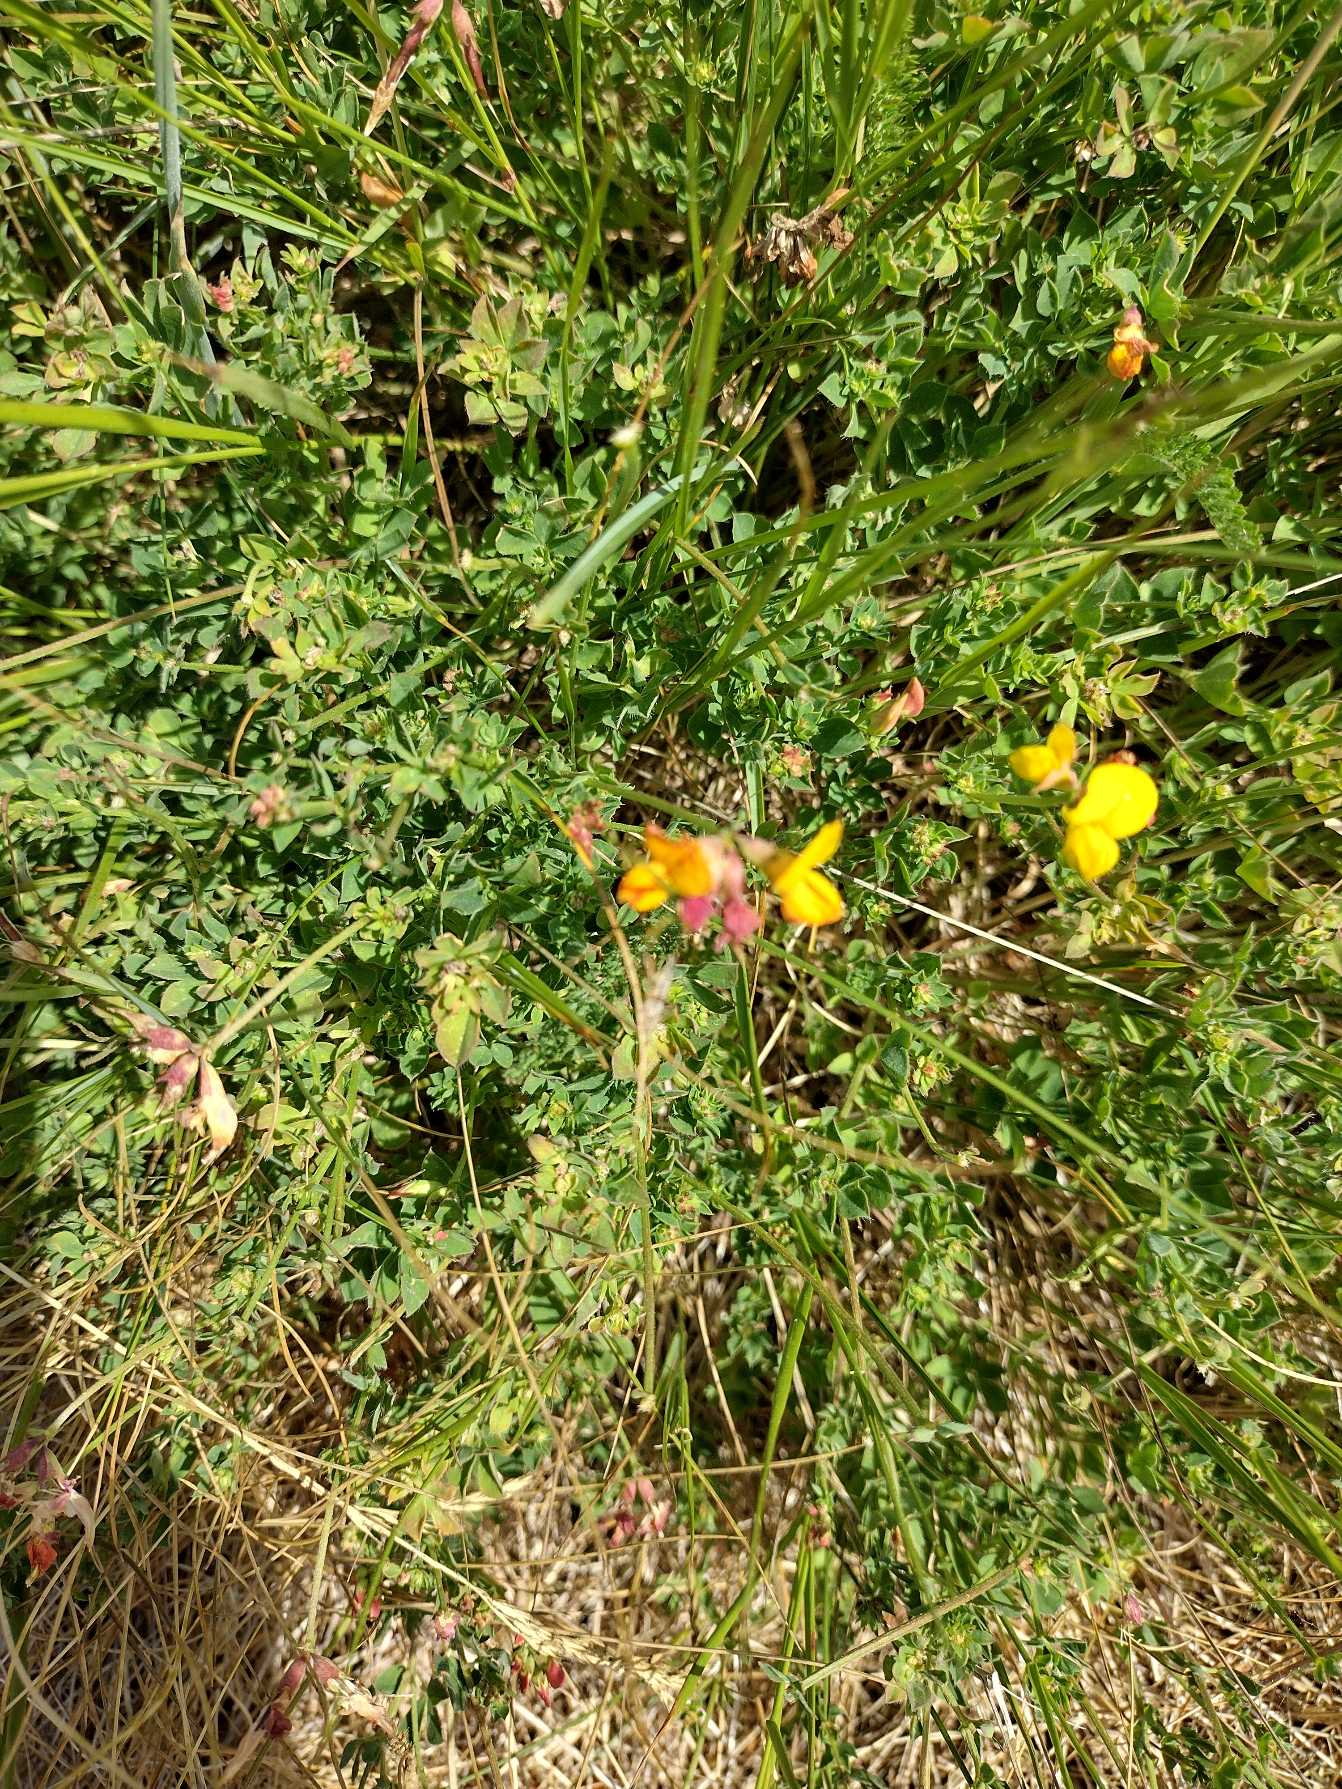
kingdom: Plantae
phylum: Tracheophyta
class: Magnoliopsida
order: Fabales
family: Fabaceae
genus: Lotus
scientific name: Lotus corniculatus
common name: Almindelig kællingetand
